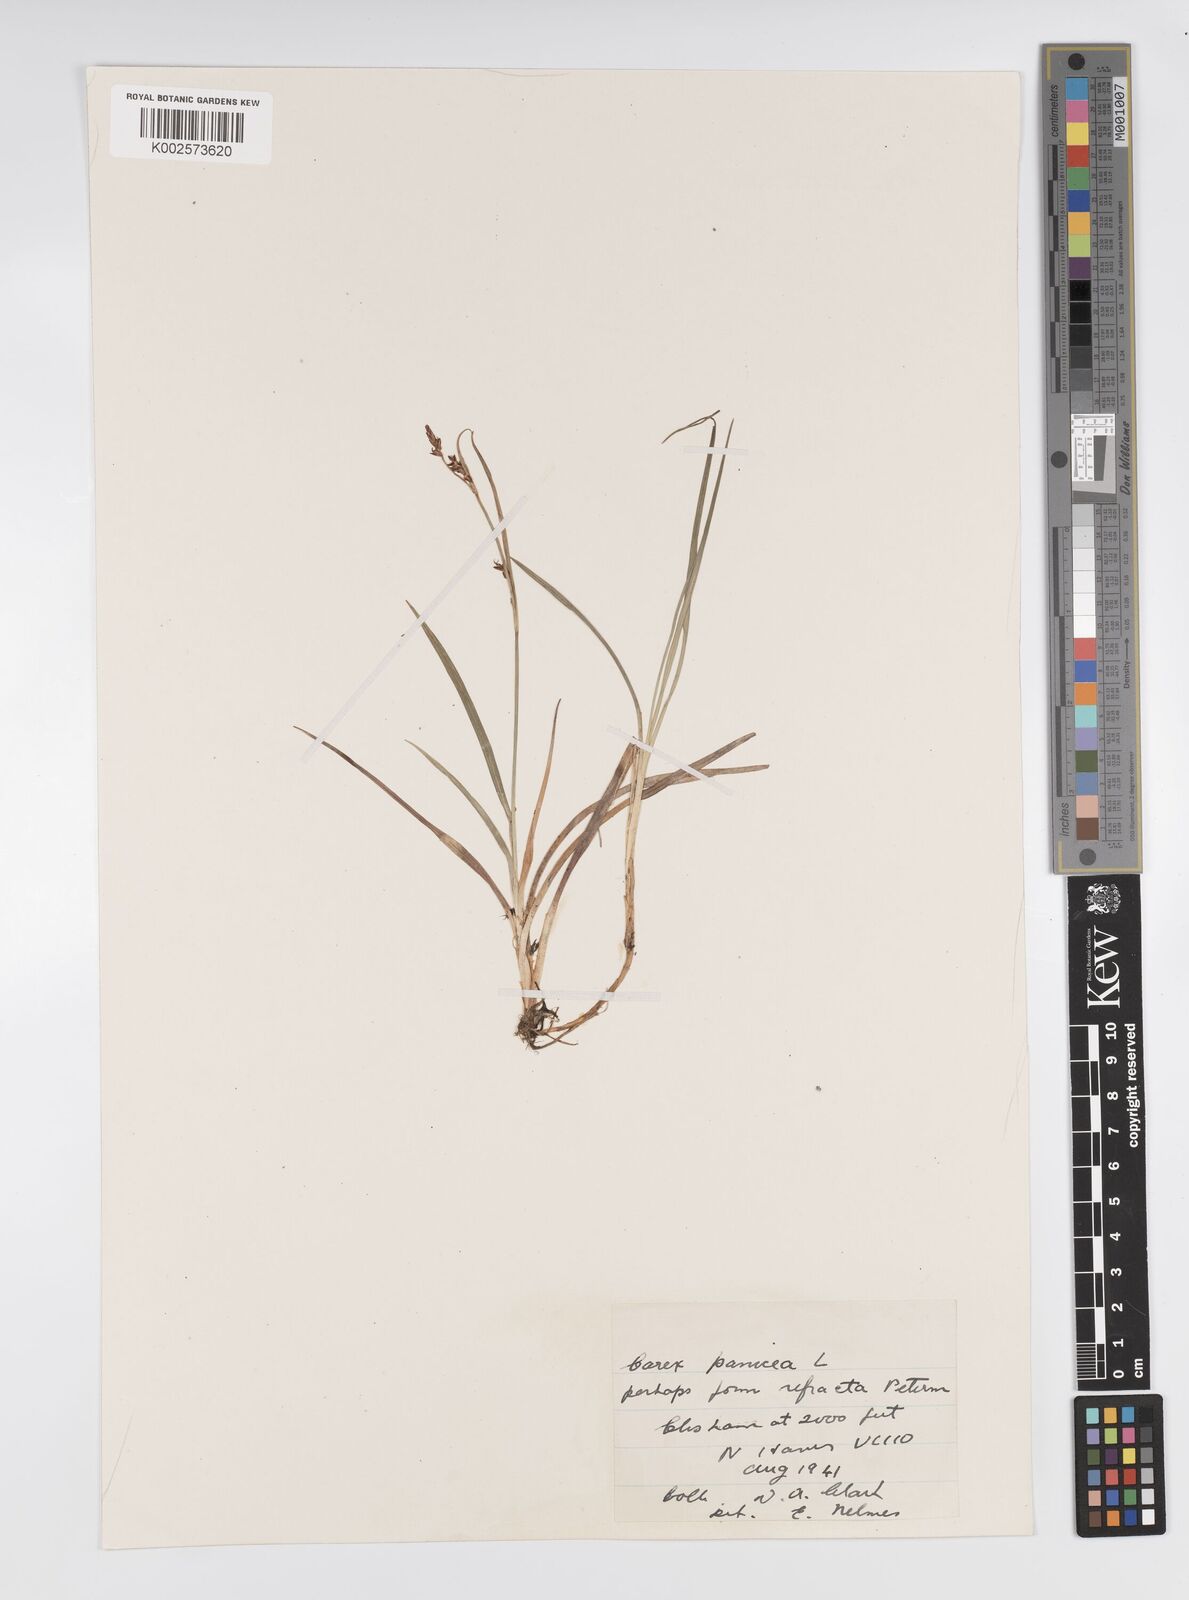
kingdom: Plantae
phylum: Tracheophyta
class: Liliopsida
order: Poales
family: Cyperaceae
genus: Carex
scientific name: Carex panicea
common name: Carnation sedge
